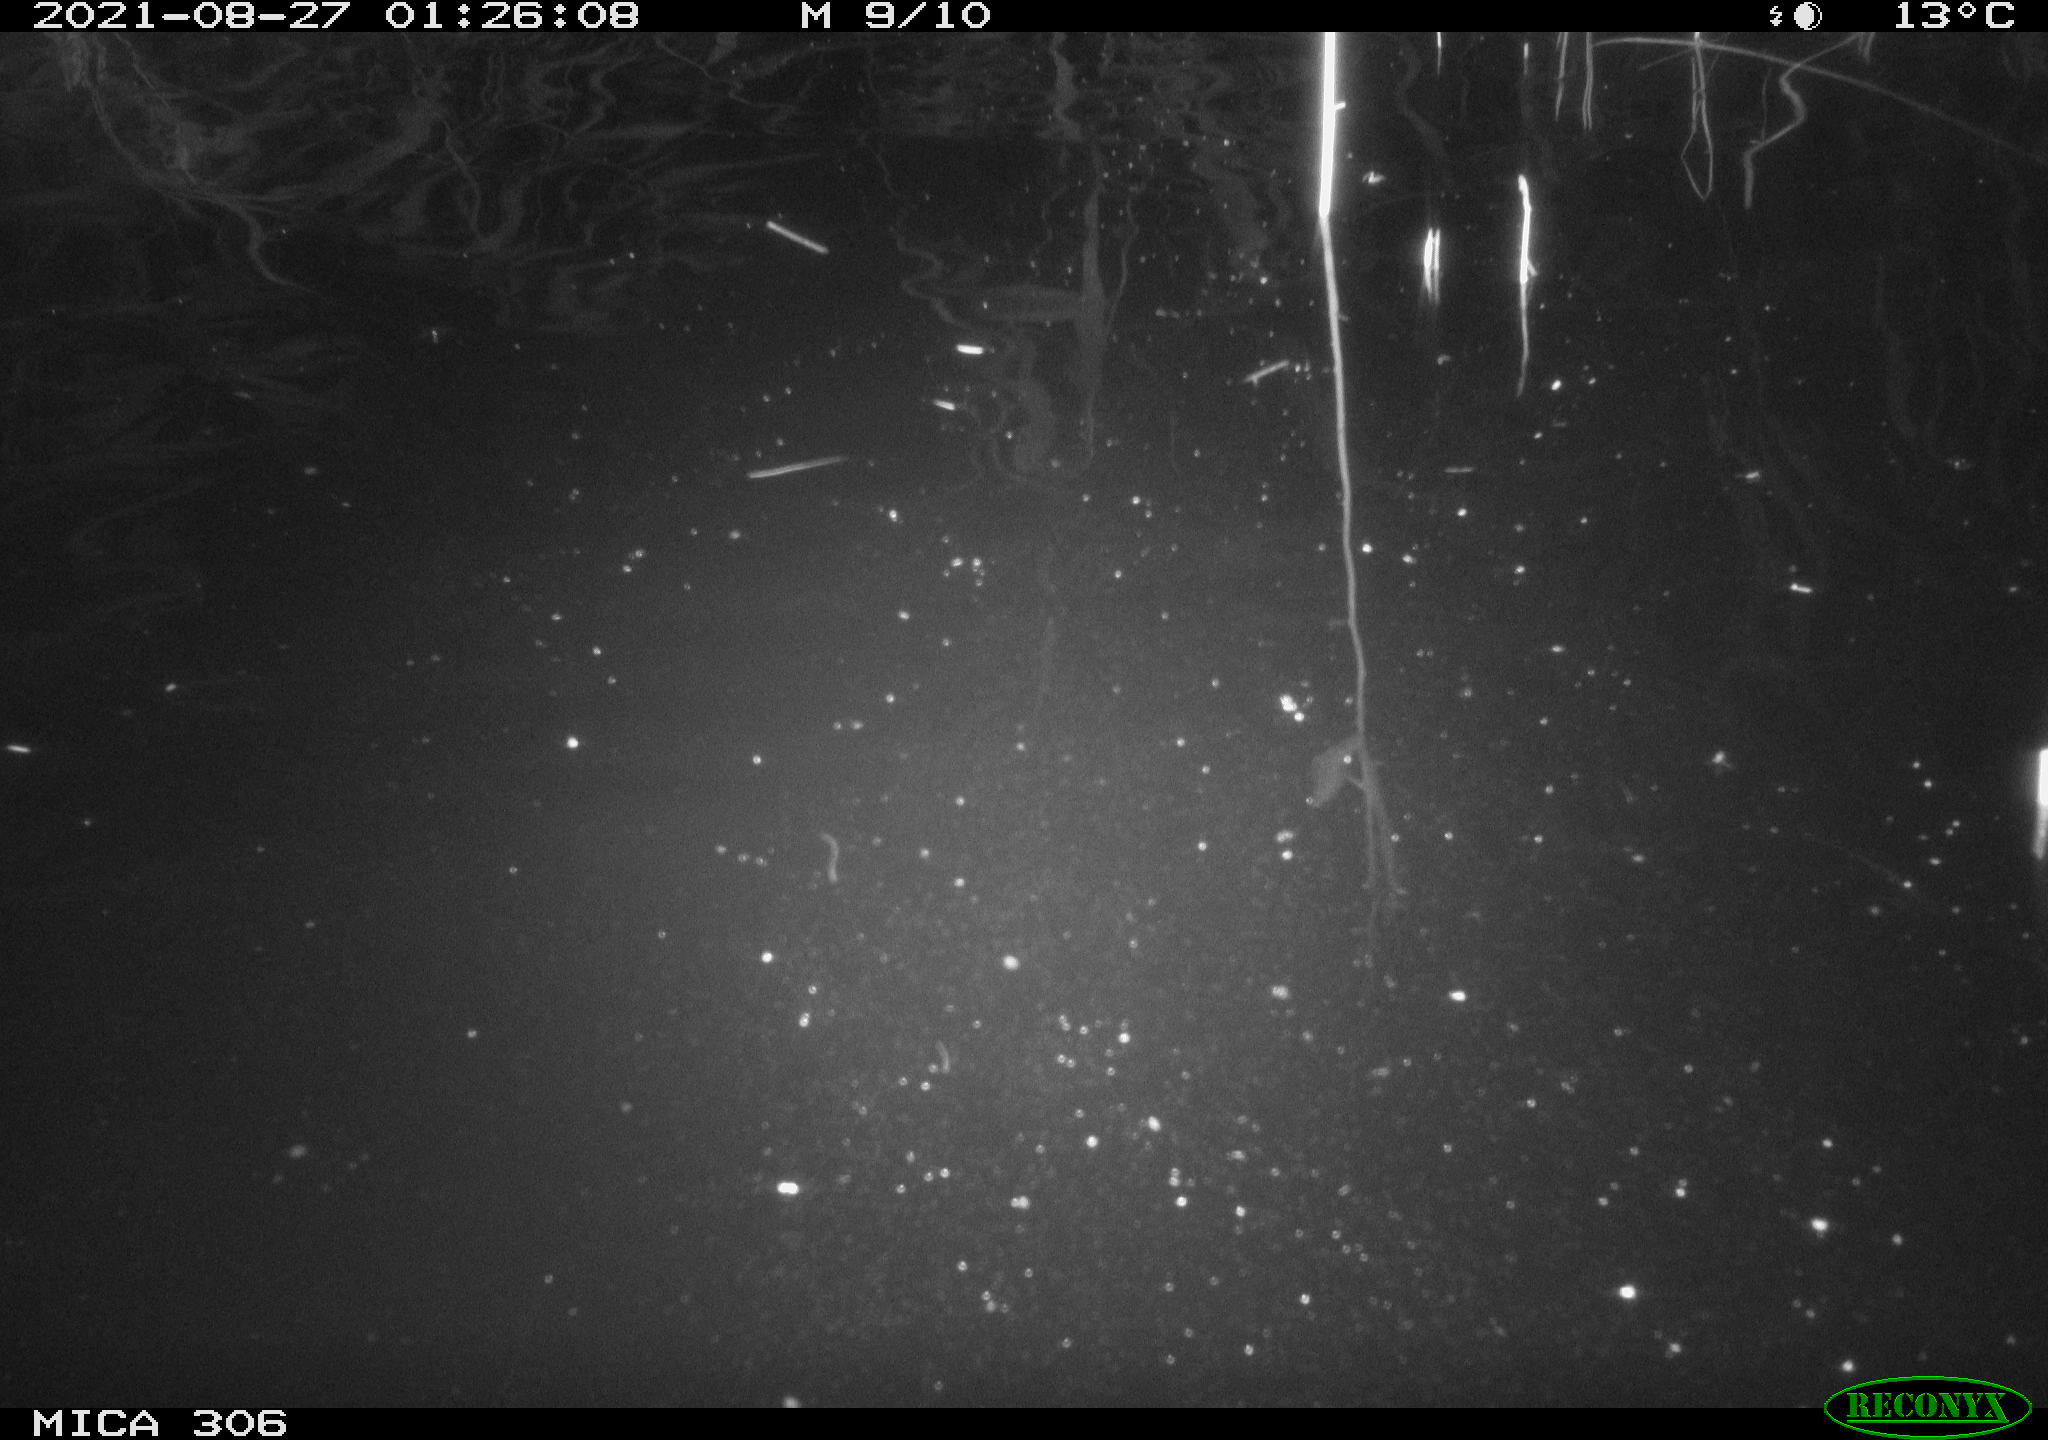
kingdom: Animalia
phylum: Chordata
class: Mammalia
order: Rodentia
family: Cricetidae
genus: Ondatra
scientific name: Ondatra zibethicus
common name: Muskrat
